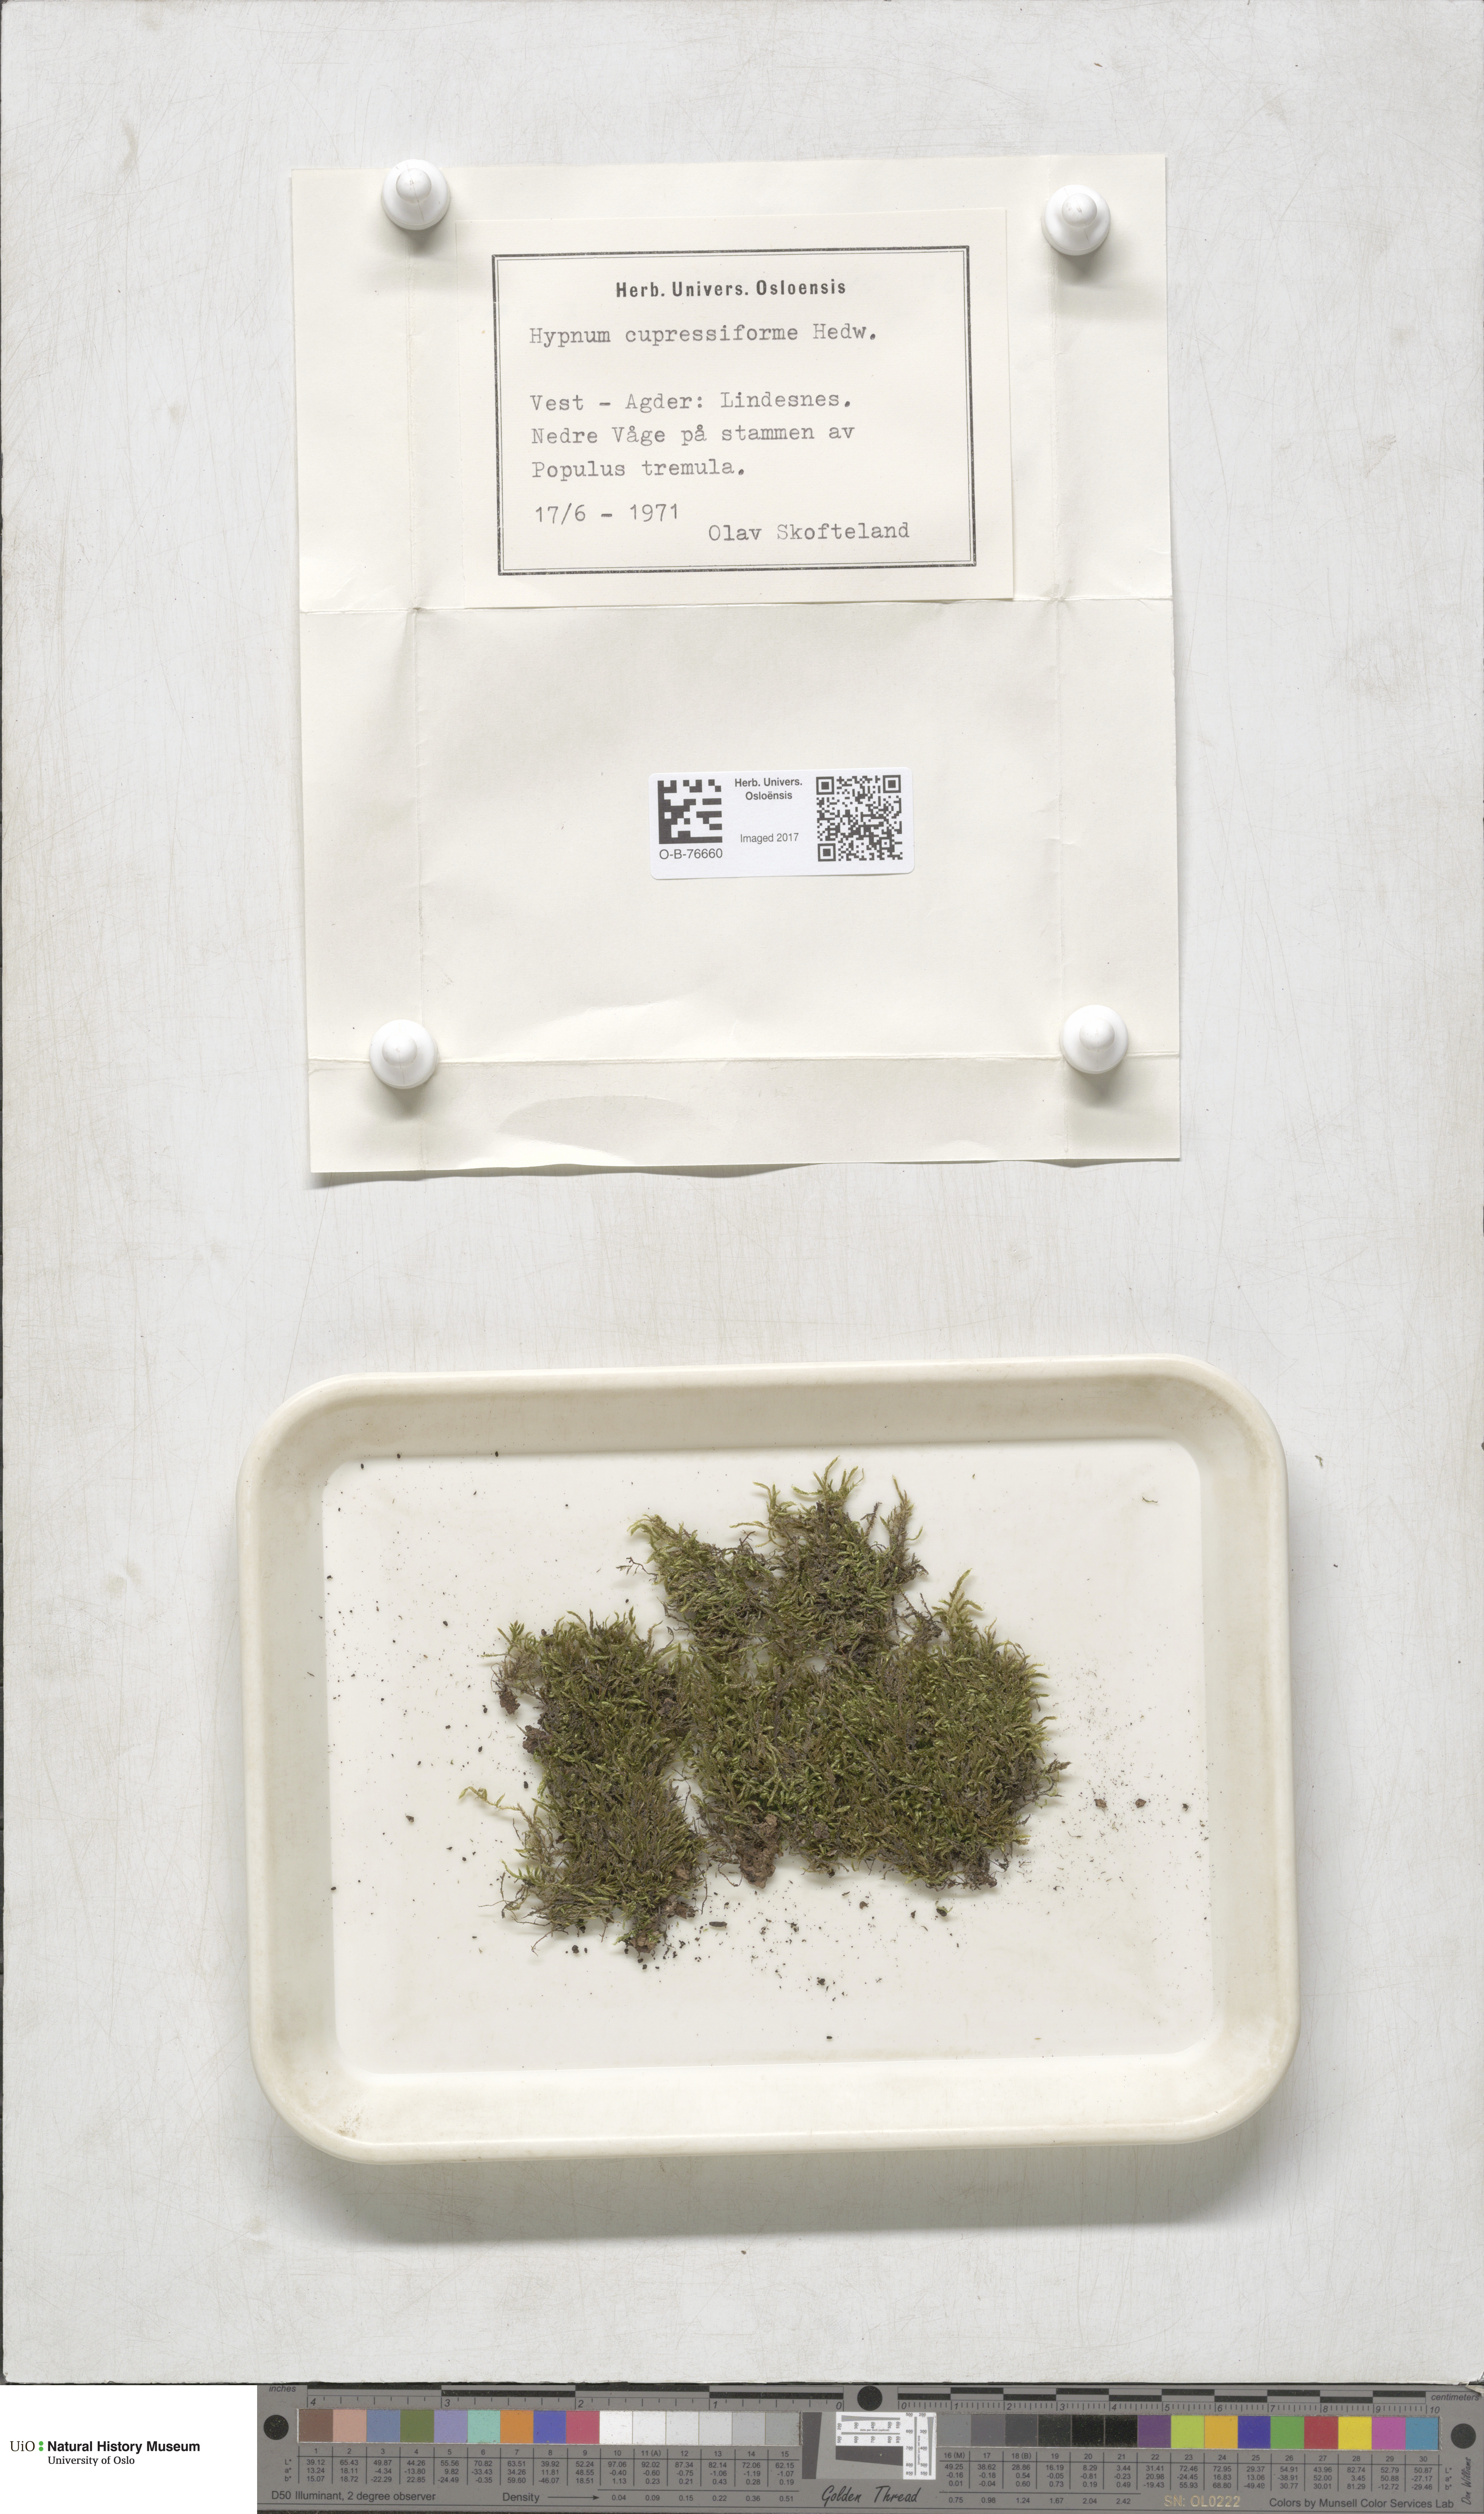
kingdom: Plantae
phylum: Bryophyta
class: Bryopsida
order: Hypnales
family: Hypnaceae
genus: Hypnum
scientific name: Hypnum cupressiforme
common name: Cypress-leaved plait-moss
